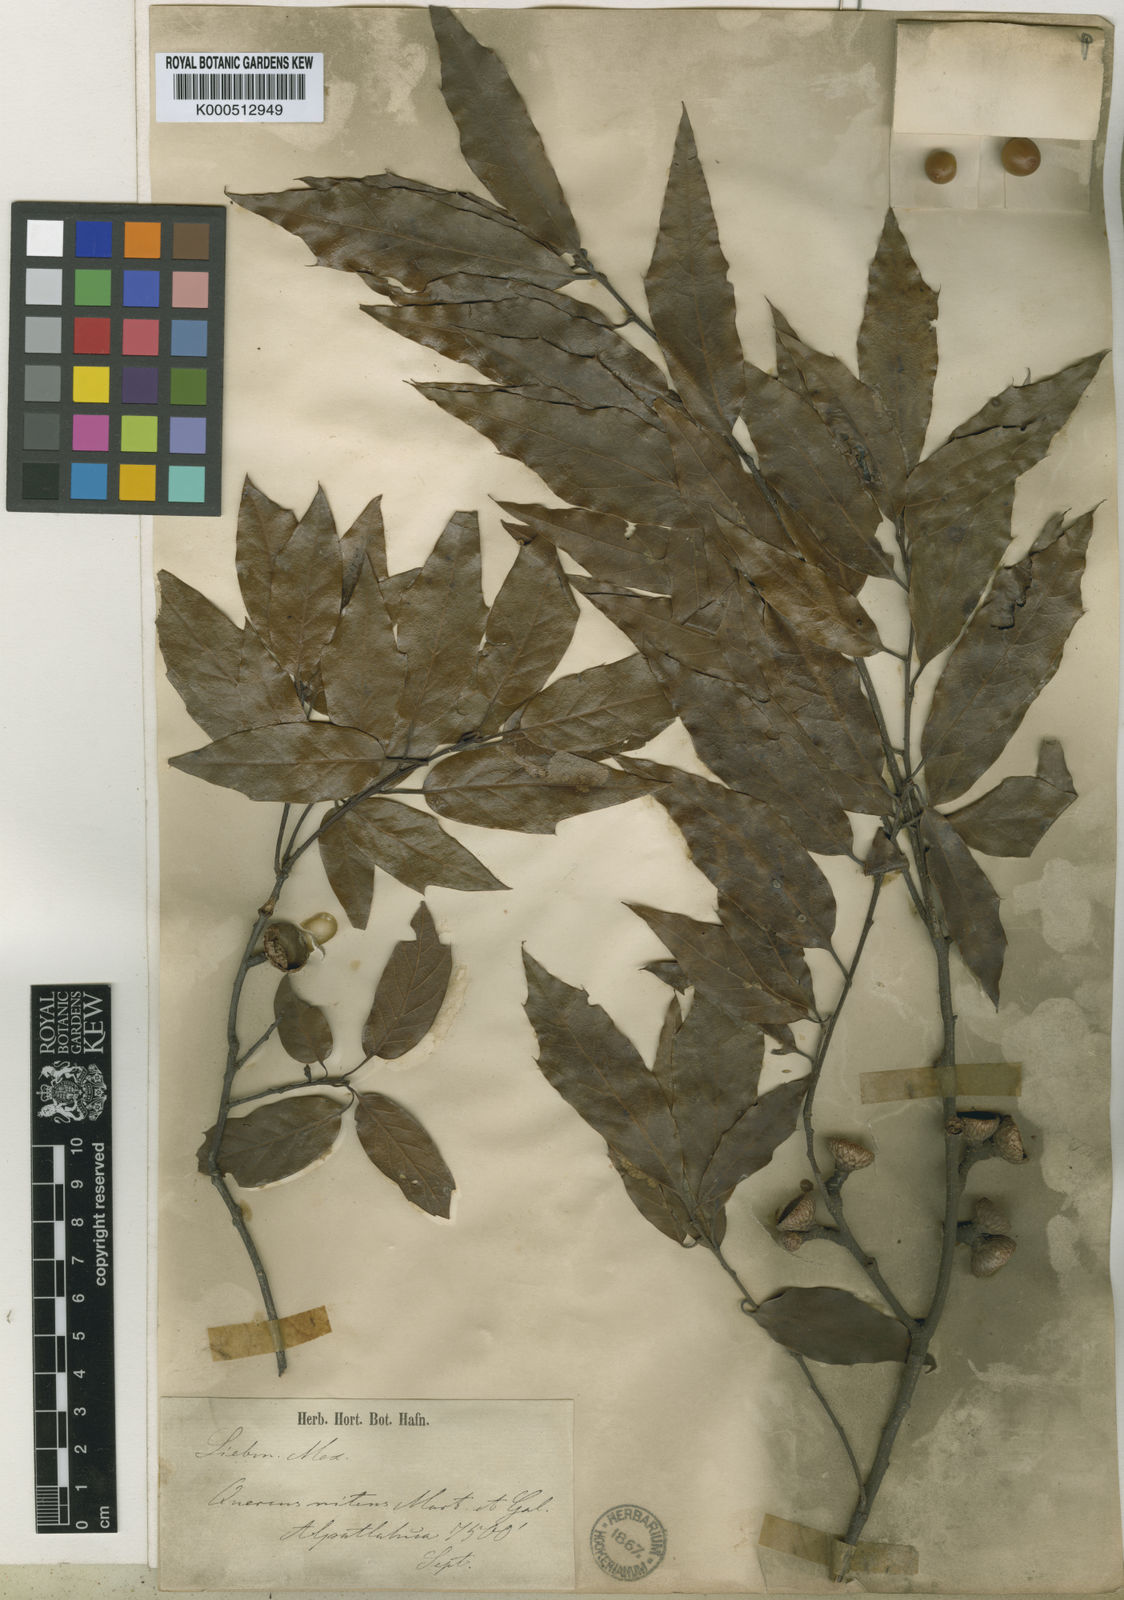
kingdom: Plantae
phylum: Tracheophyta
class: Magnoliopsida
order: Fagales
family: Fagaceae
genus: Quercus
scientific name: Quercus laurina
